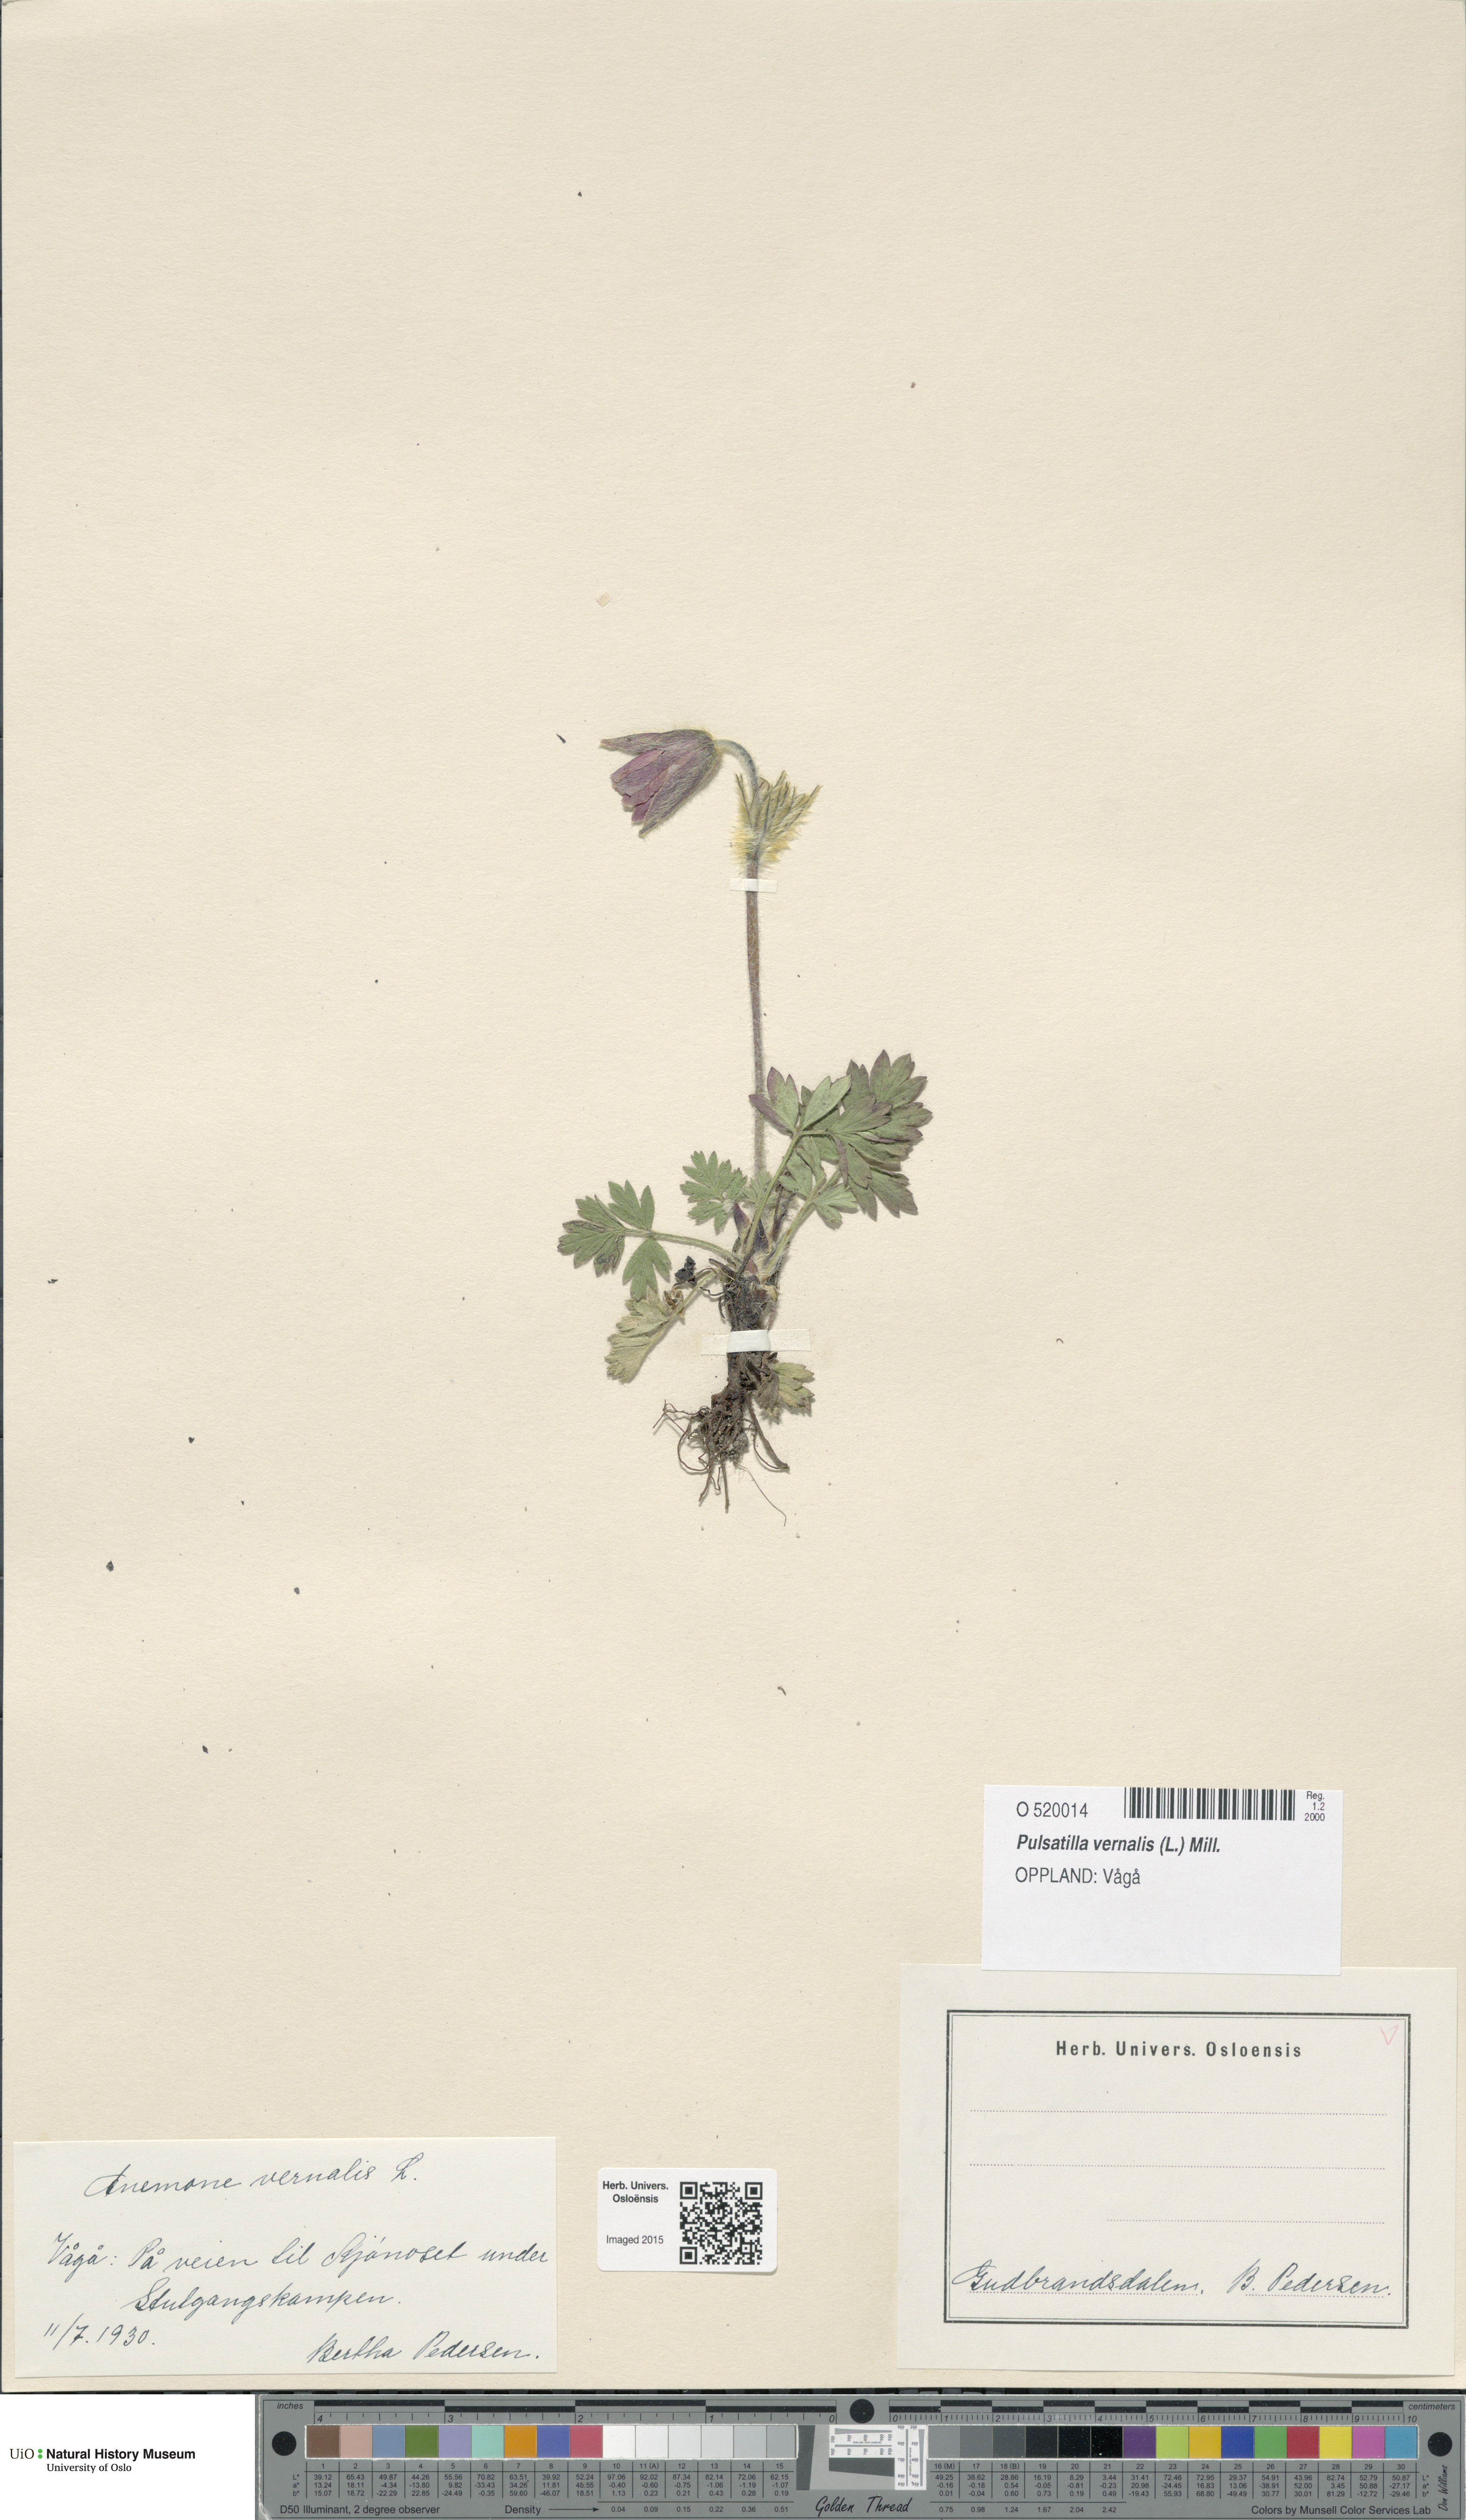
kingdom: Plantae
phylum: Tracheophyta
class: Magnoliopsida
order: Ranunculales
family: Ranunculaceae
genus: Pulsatilla
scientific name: Pulsatilla vernalis
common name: Spring pasque flower
